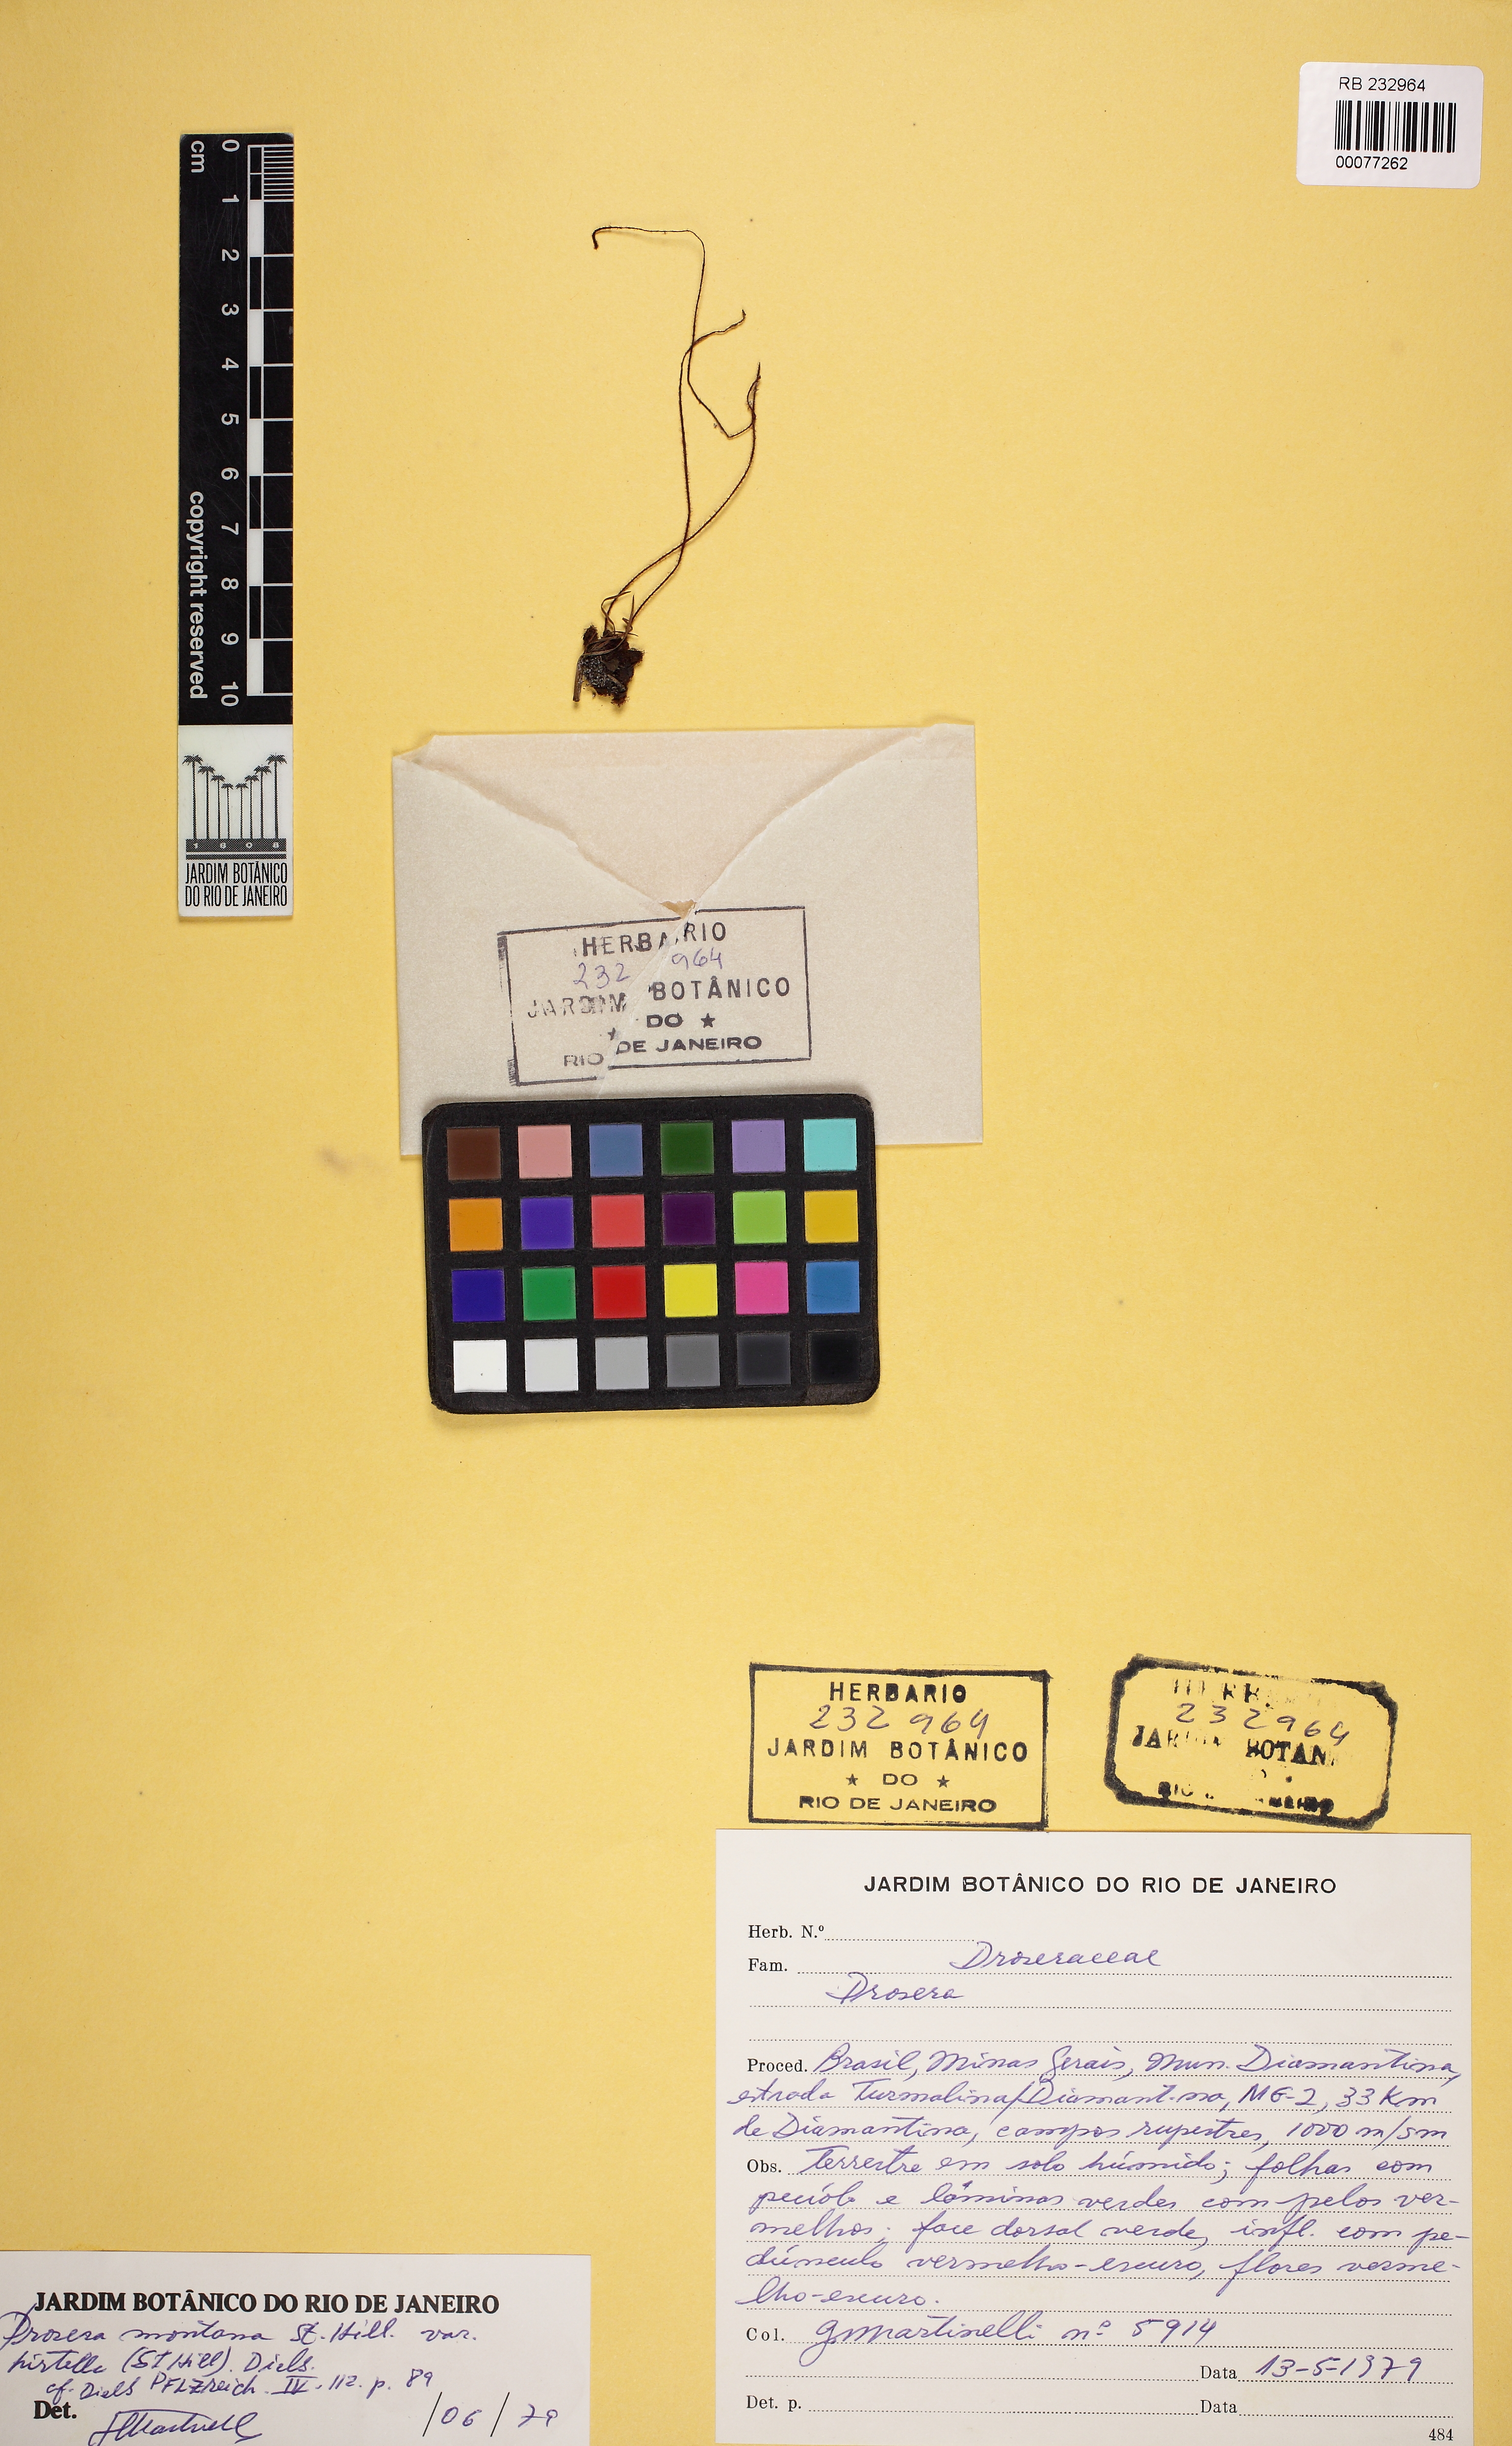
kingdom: Plantae
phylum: Tracheophyta
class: Magnoliopsida
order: Caryophyllales
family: Droseraceae
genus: Drosera
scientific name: Drosera montana
